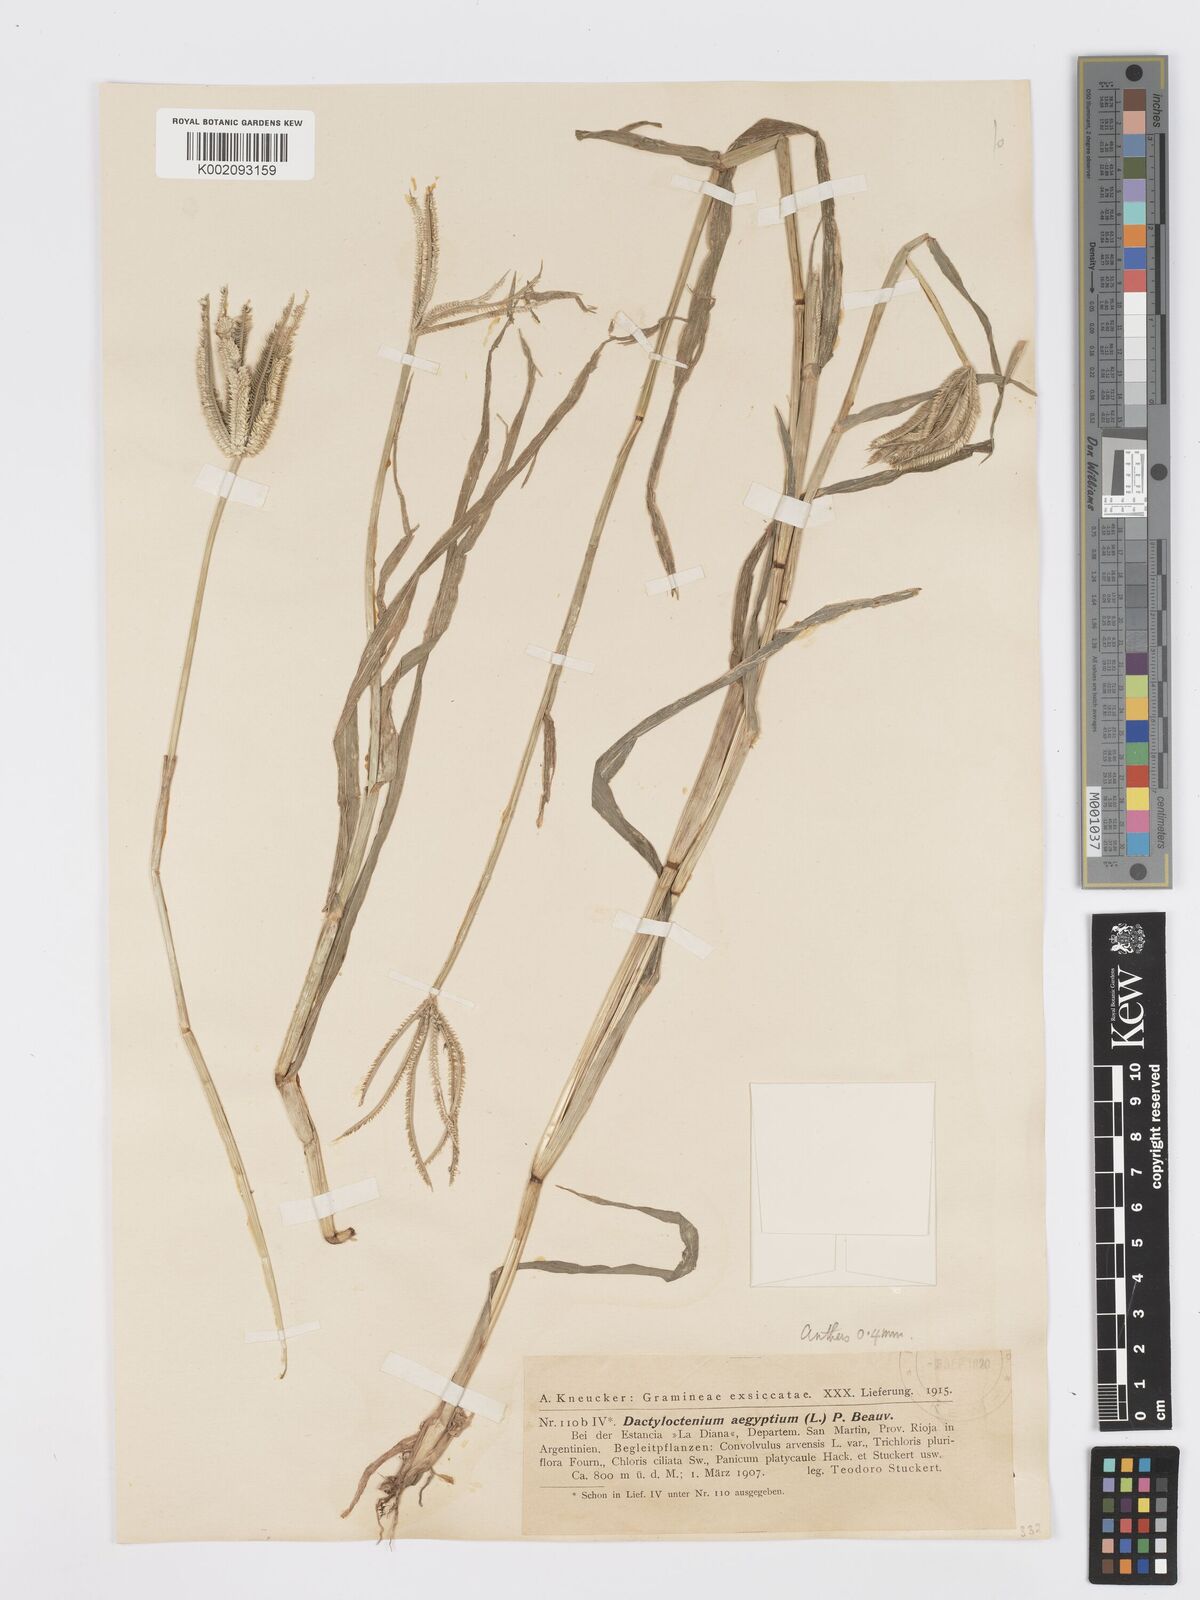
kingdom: Plantae
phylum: Tracheophyta
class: Liliopsida
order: Poales
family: Poaceae
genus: Dactyloctenium
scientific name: Dactyloctenium aegyptium
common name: Egyptian grass
